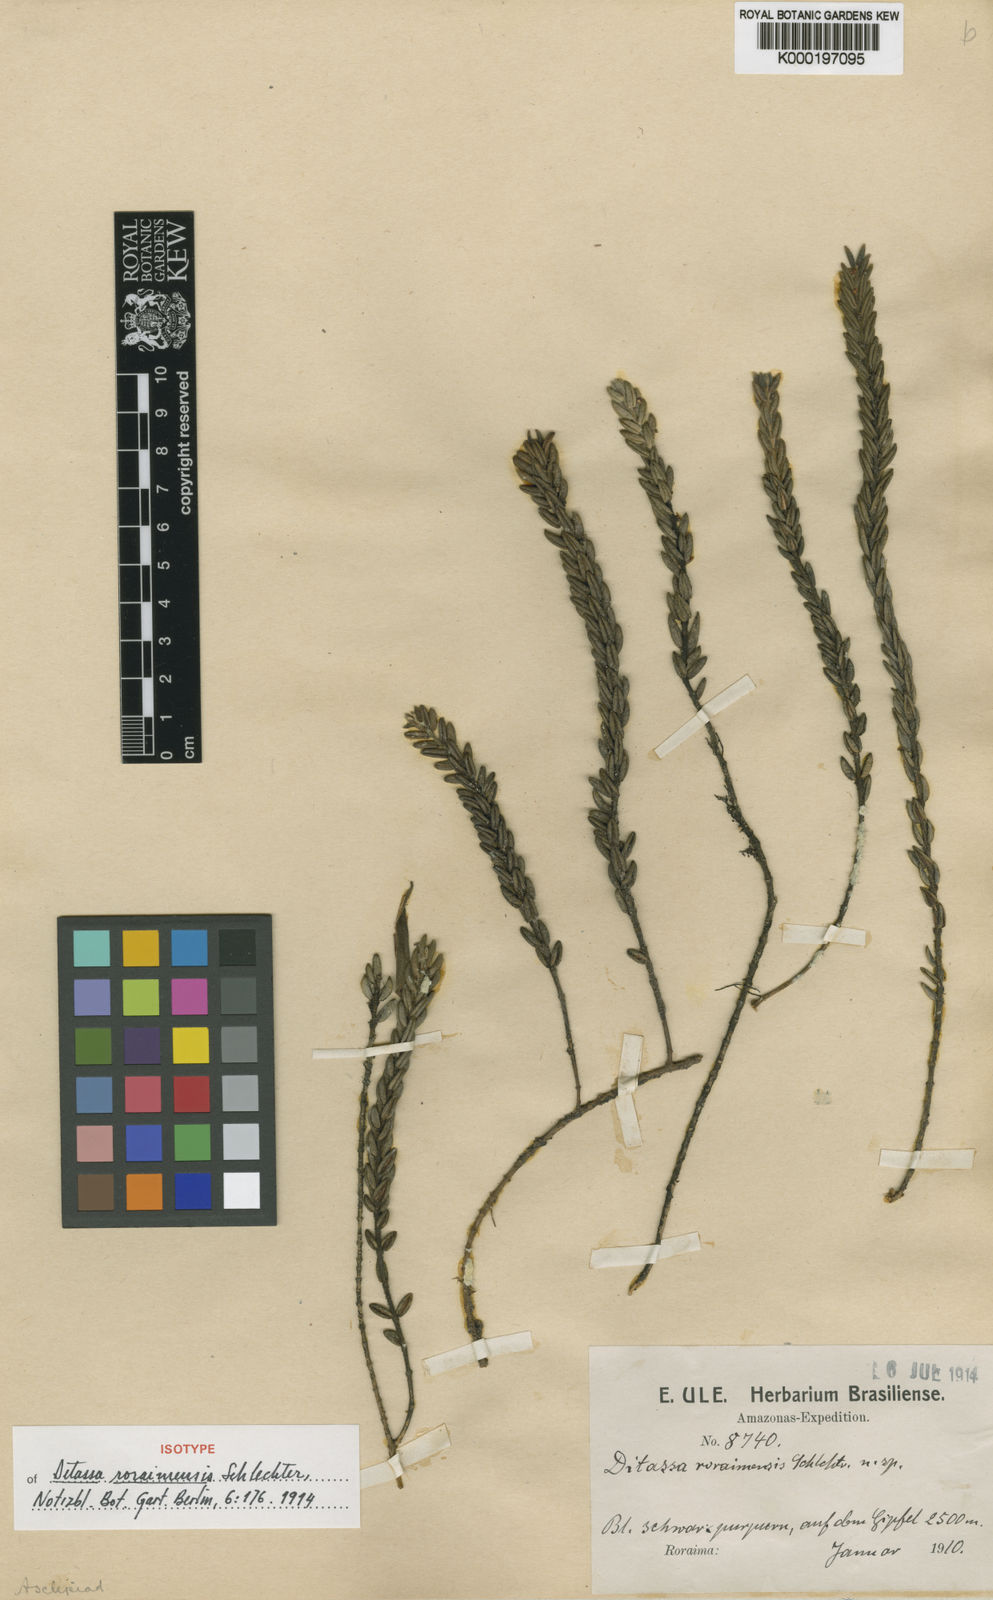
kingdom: Plantae
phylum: Tracheophyta
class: Magnoliopsida
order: Gentianales
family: Apocynaceae
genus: Ditassa
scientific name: Ditassa roraimensis
